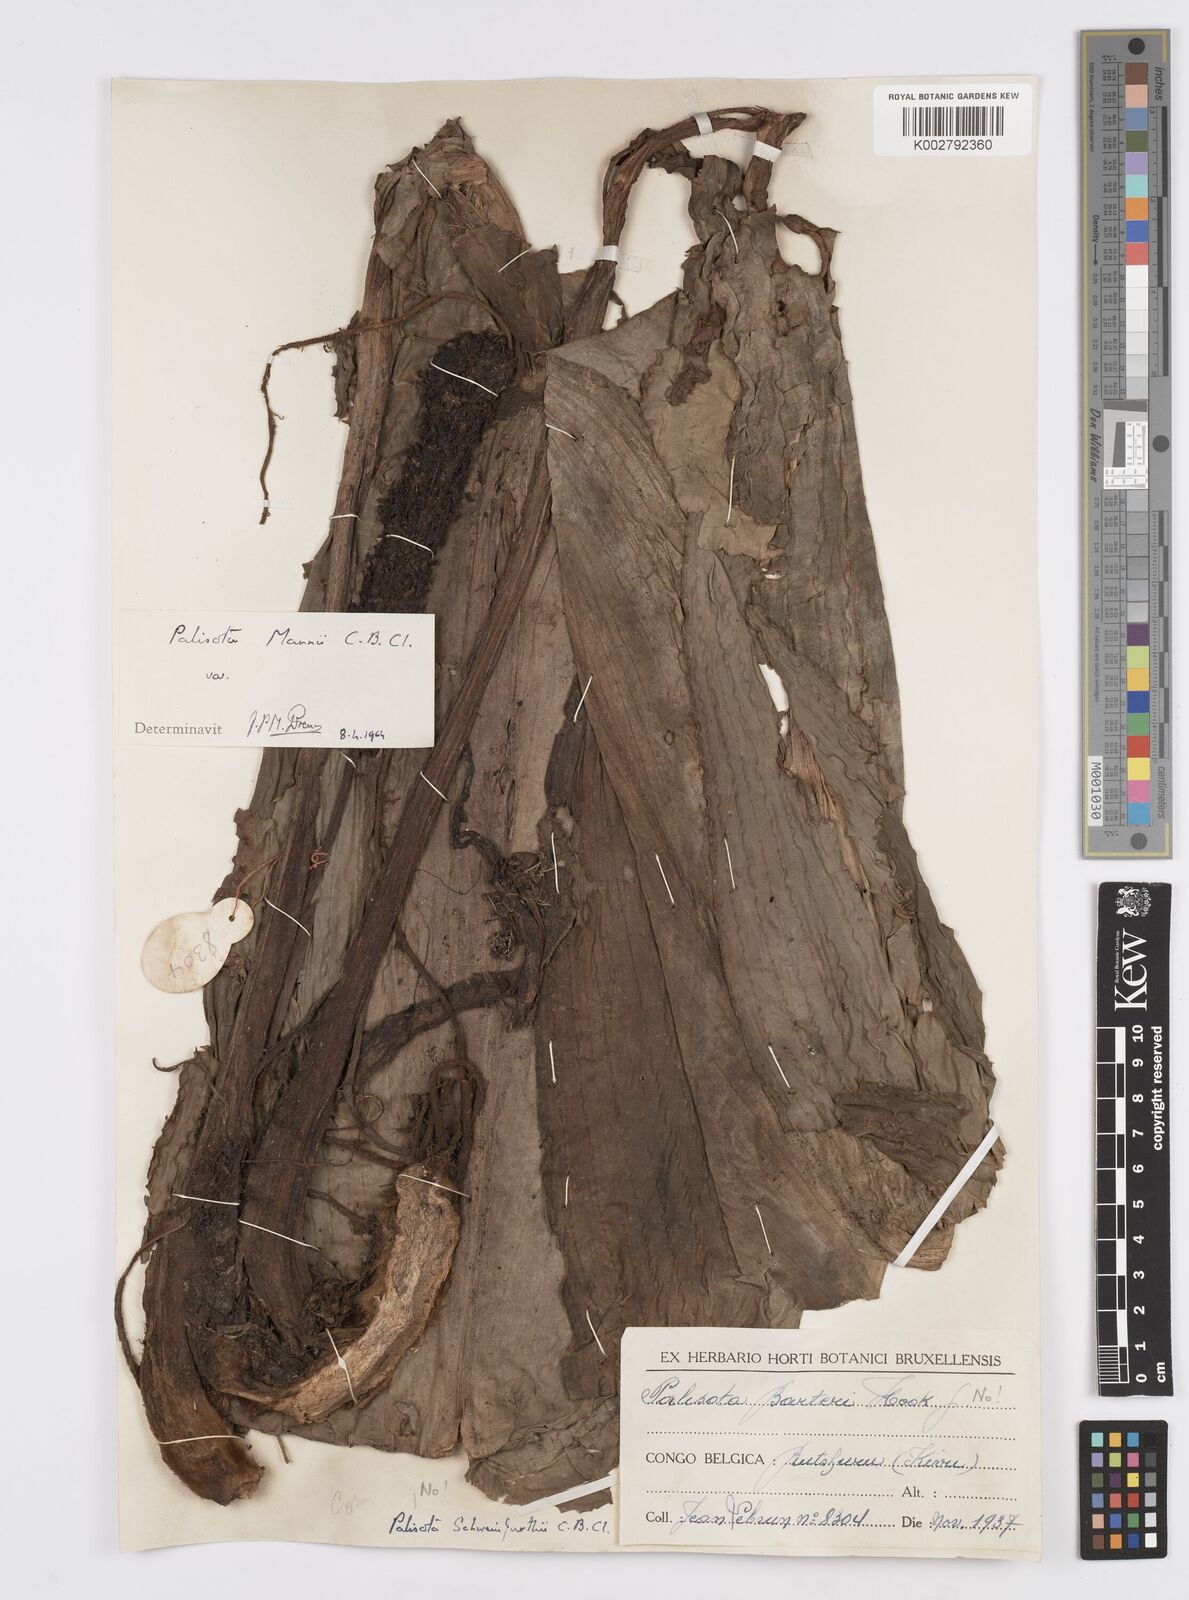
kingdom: Plantae
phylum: Tracheophyta
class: Liliopsida
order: Commelinales
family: Commelinaceae
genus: Palisota
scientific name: Palisota mannii
